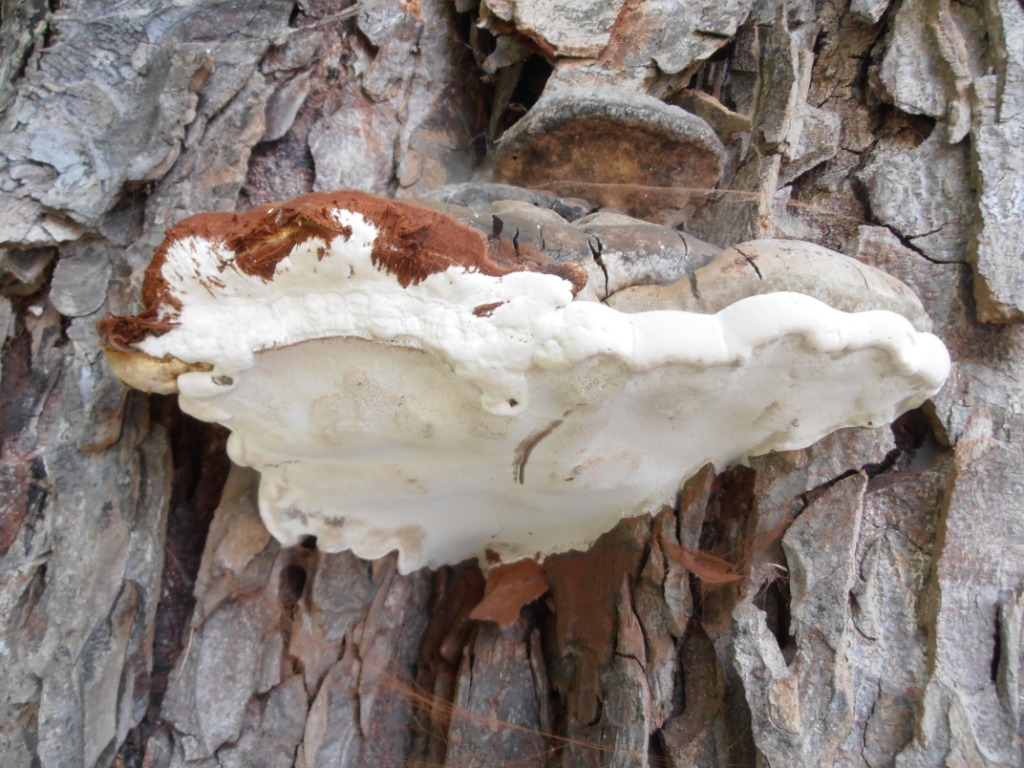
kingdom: Fungi
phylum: Basidiomycota
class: Agaricomycetes
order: Polyporales
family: Polyporaceae
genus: Ganoderma
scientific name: Ganoderma adspersum
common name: grov lakporesvamp
